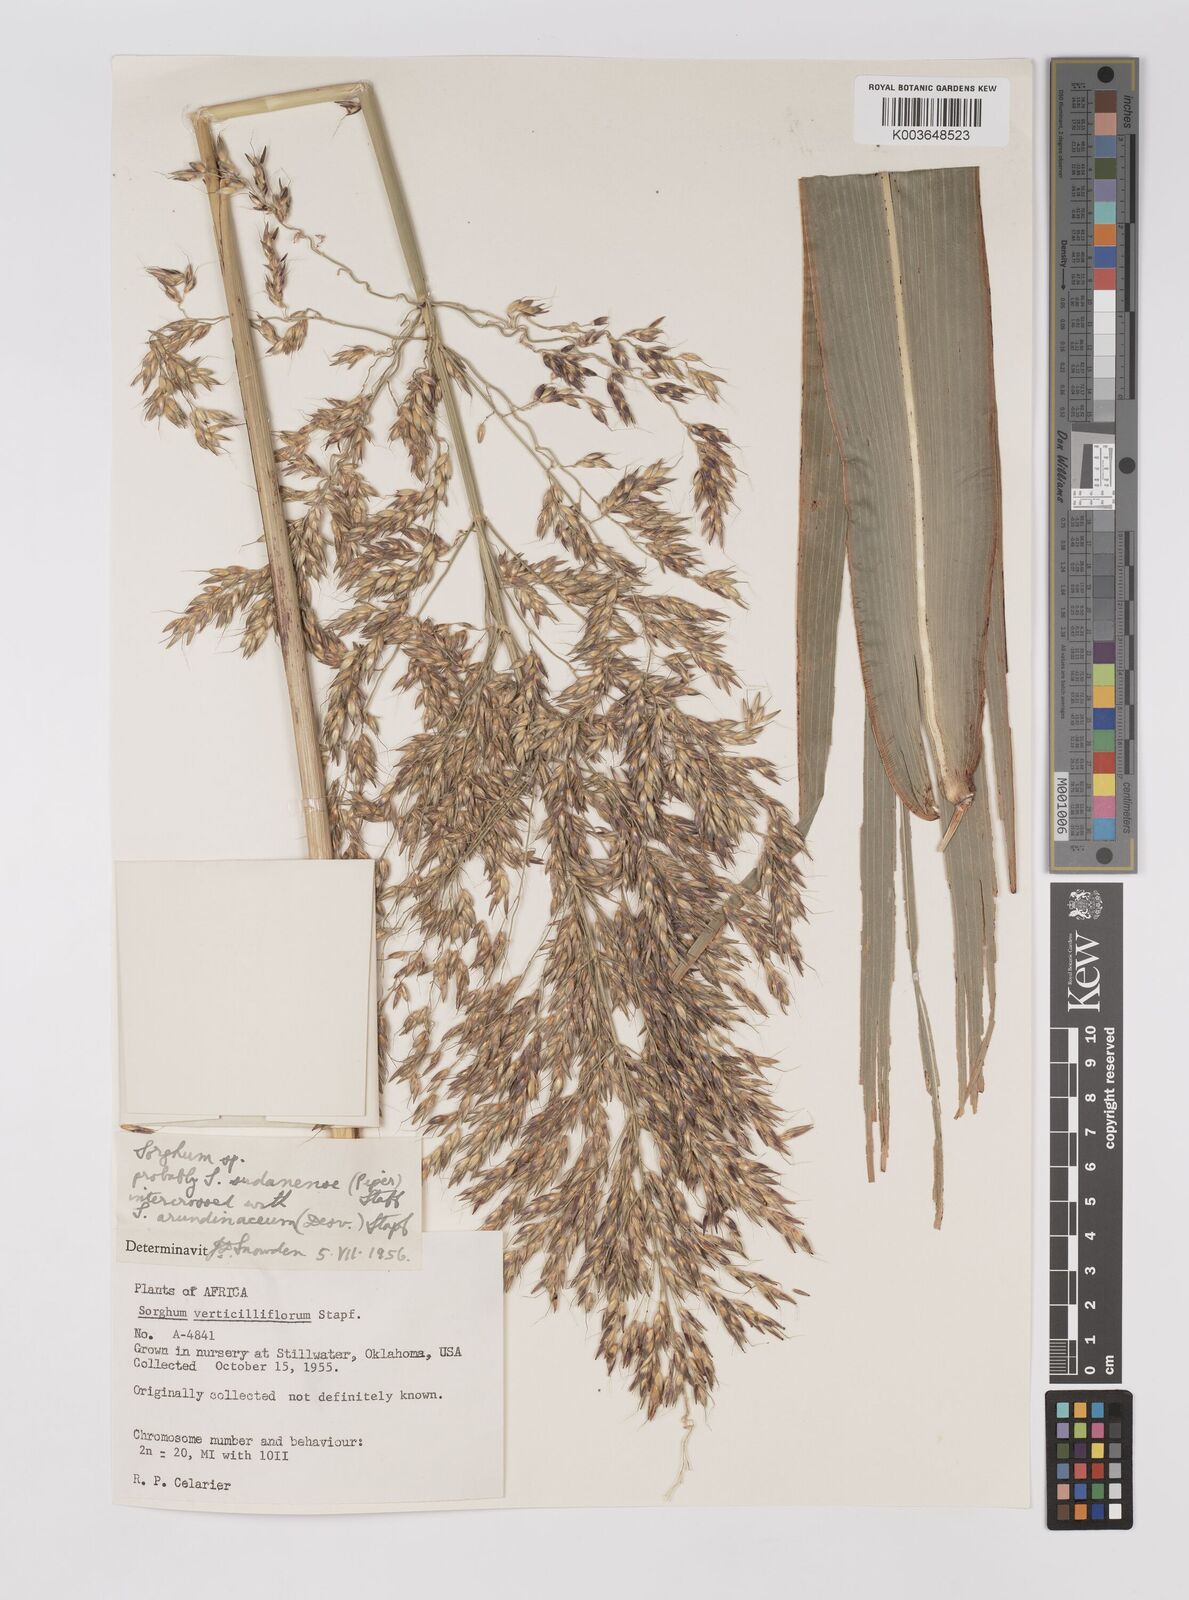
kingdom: Plantae
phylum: Tracheophyta
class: Liliopsida
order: Poales
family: Poaceae
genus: Sorghum
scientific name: Sorghum drummondii
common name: Sudangrass
